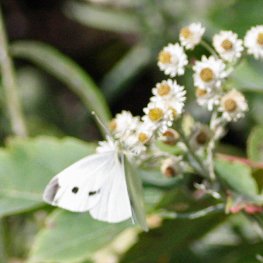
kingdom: Animalia
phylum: Arthropoda
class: Insecta
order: Lepidoptera
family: Pieridae
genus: Pieris
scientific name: Pieris rapae
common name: Cabbage White
